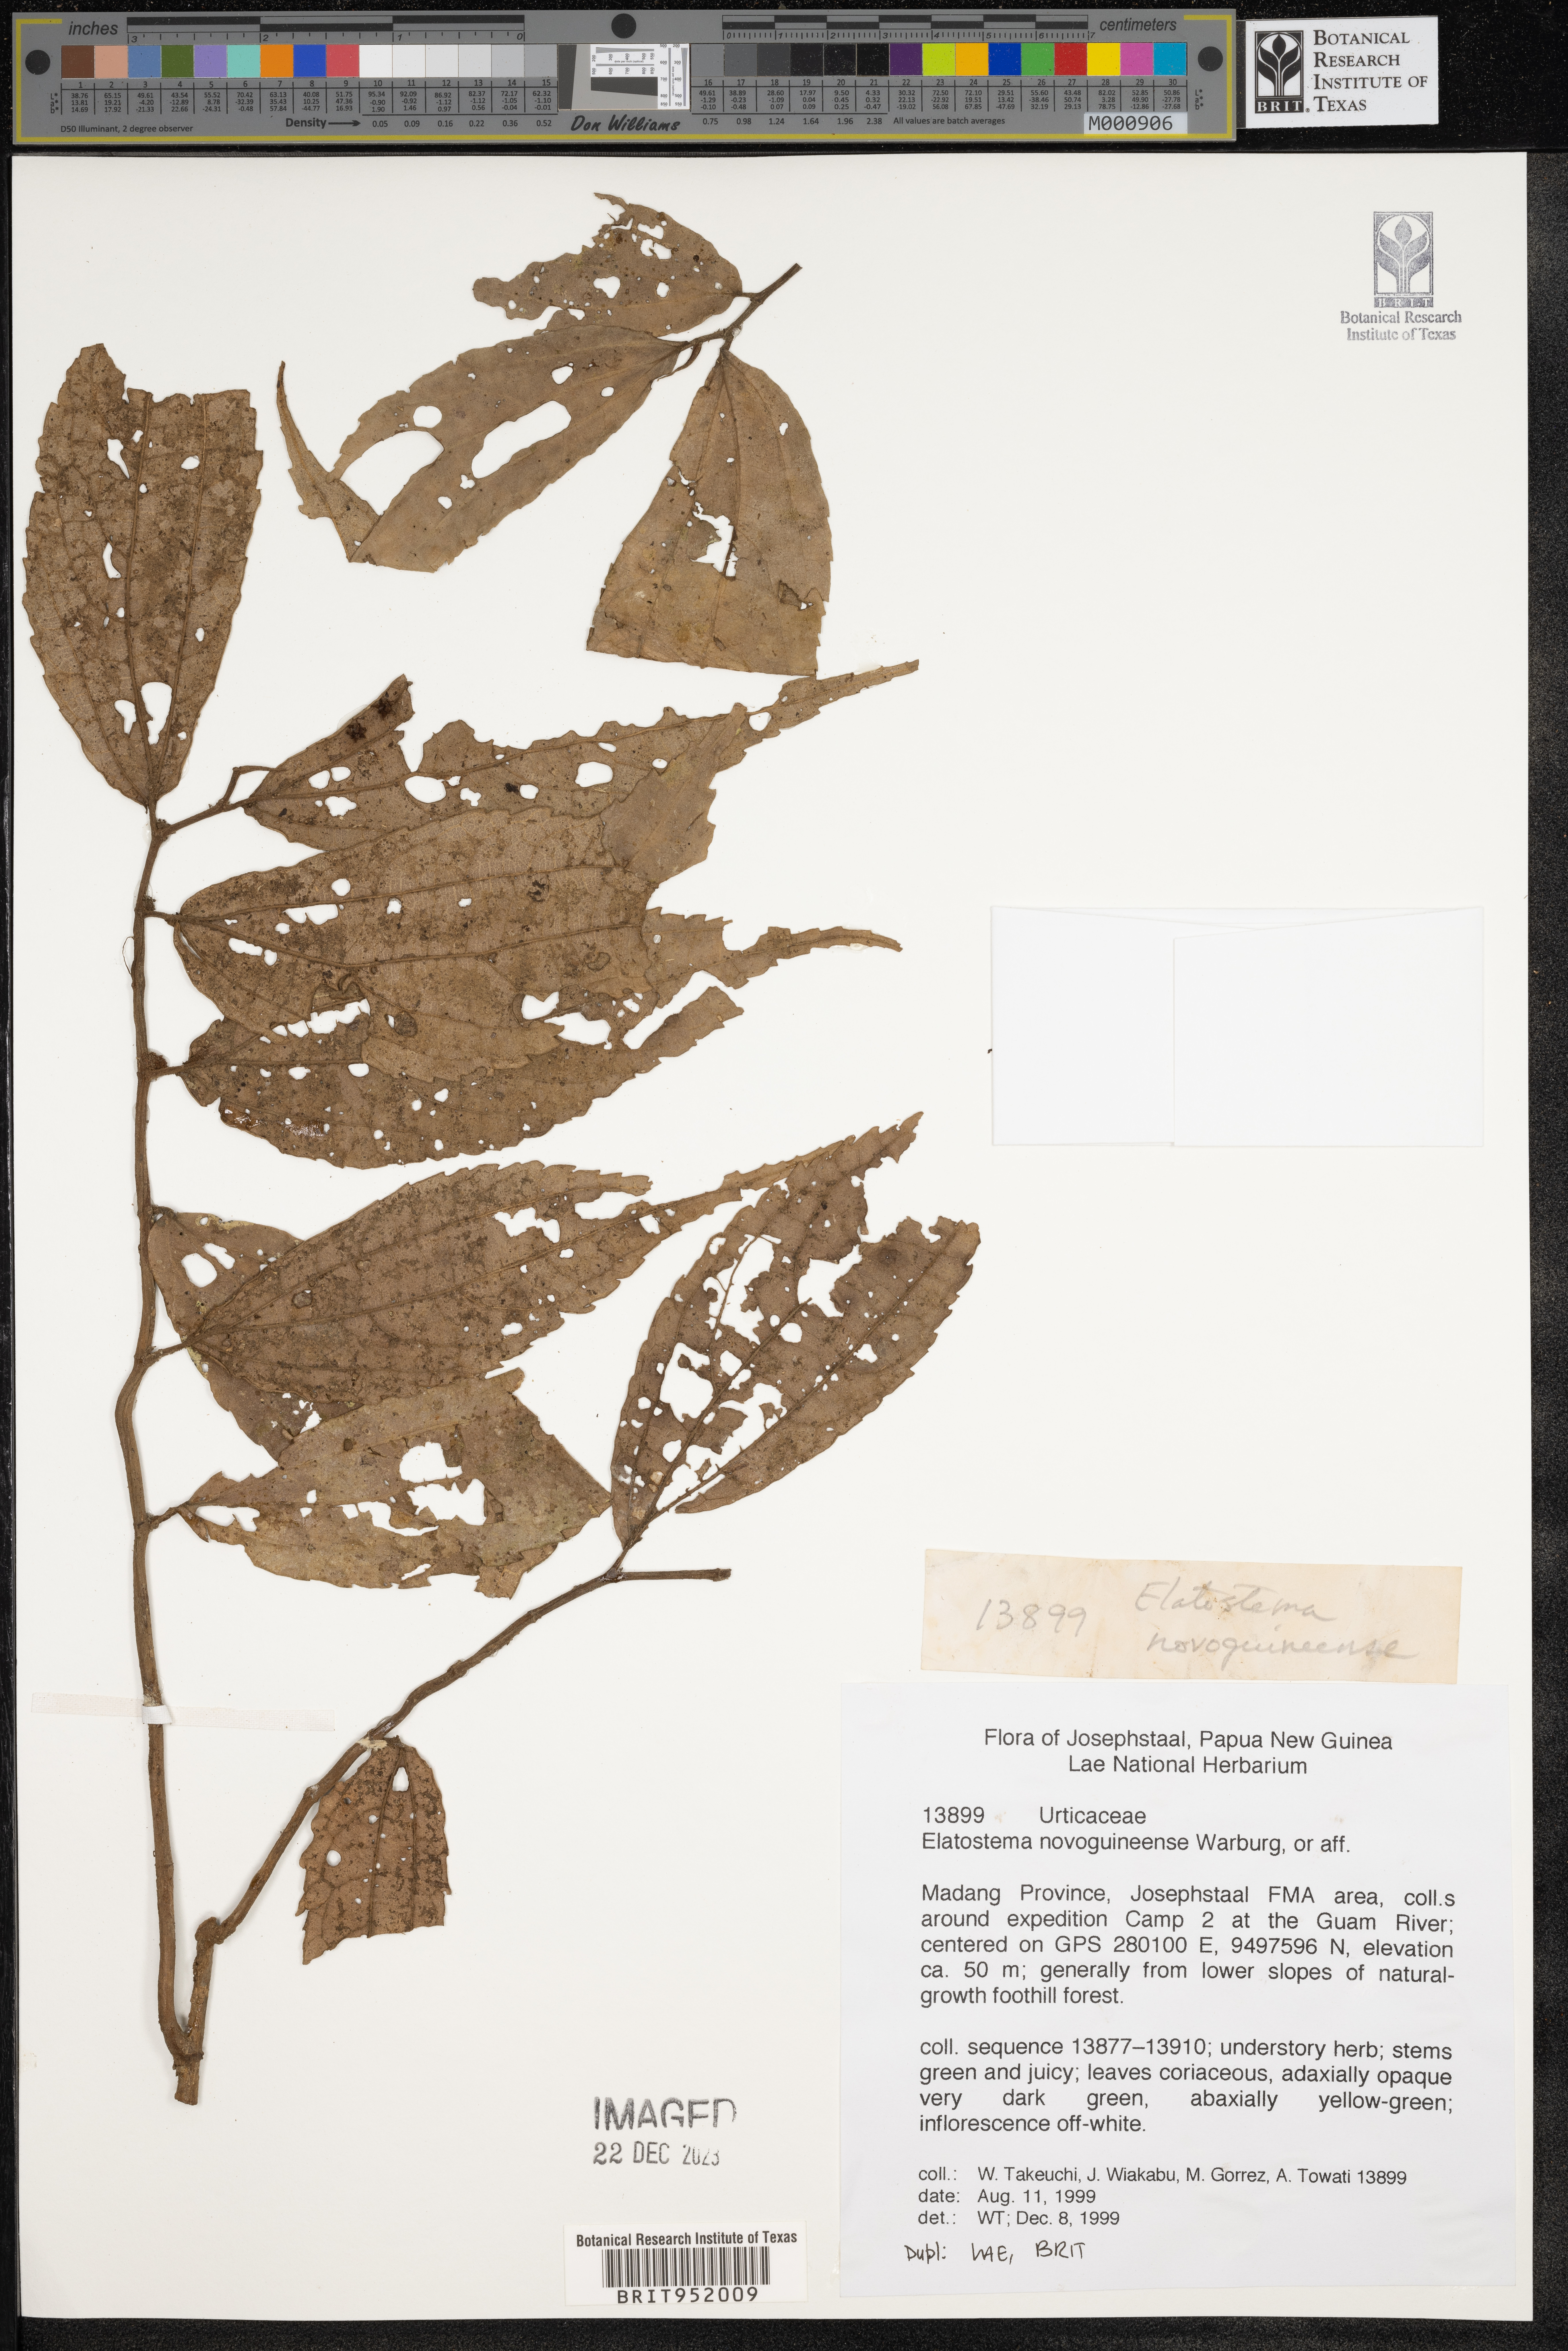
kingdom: Plantae
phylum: Tracheophyta
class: Magnoliopsida
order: Rosales
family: Urticaceae
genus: Elatostema
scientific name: Elatostema
